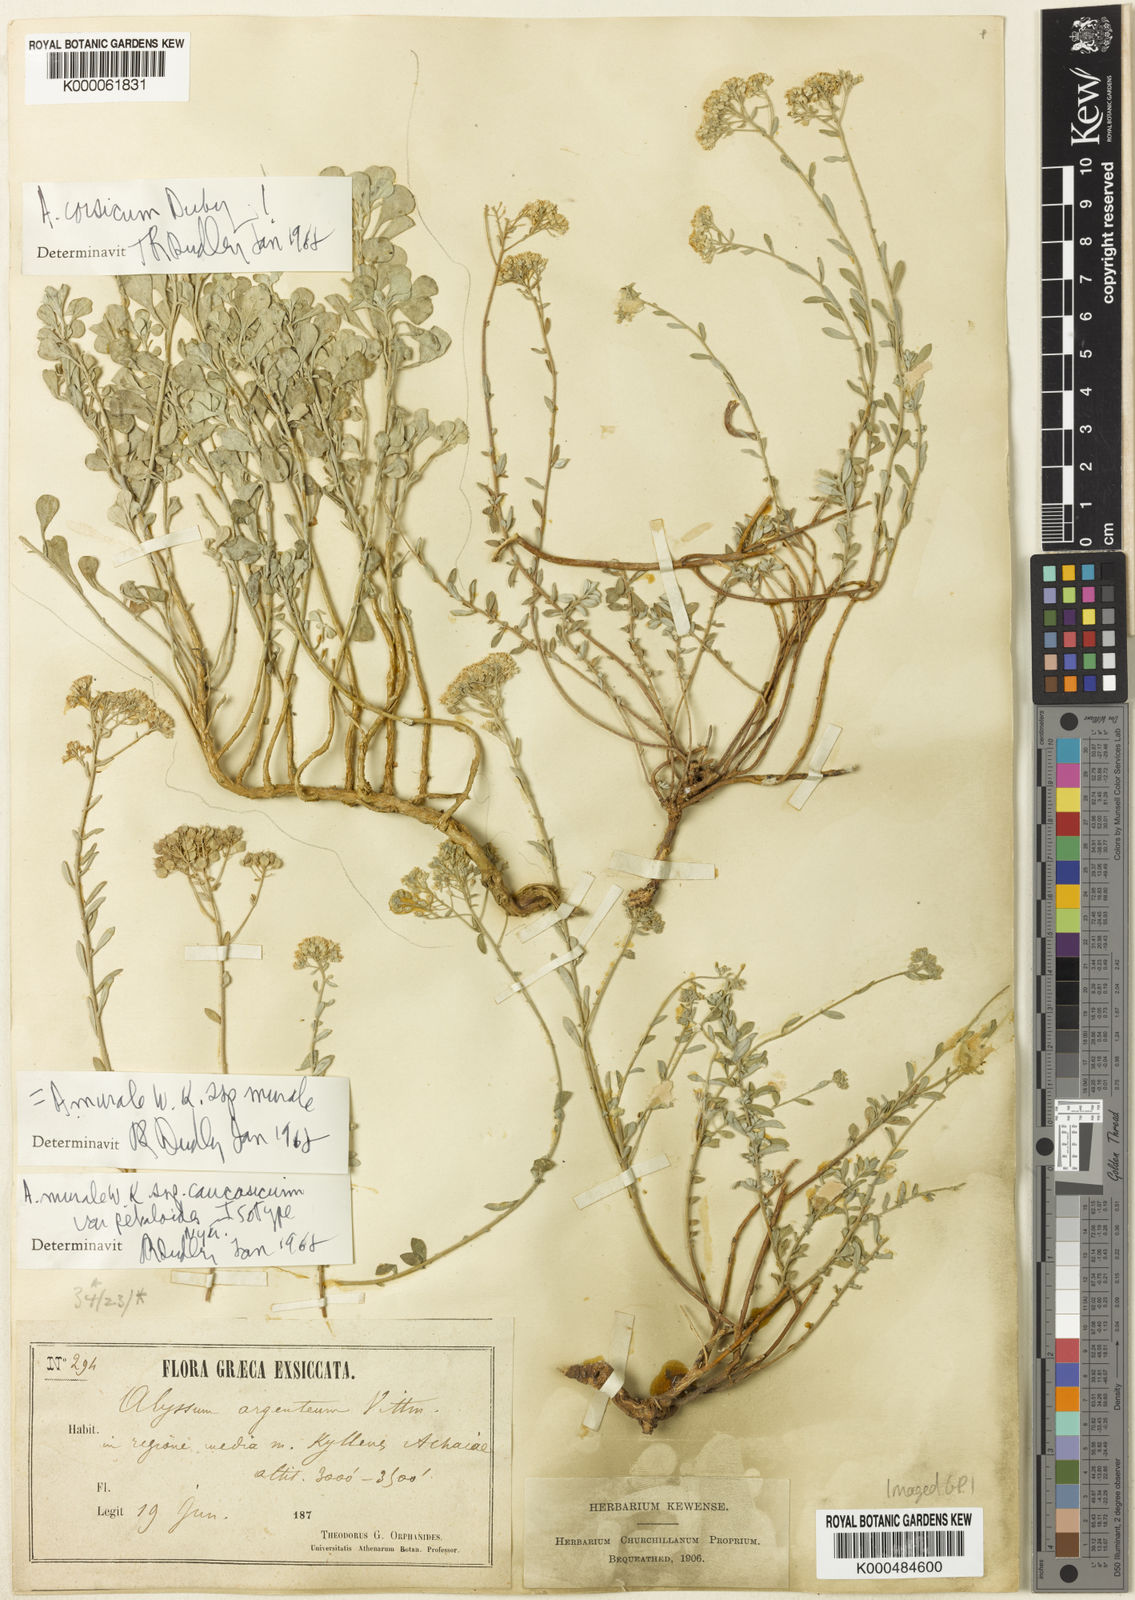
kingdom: Plantae
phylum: Tracheophyta
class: Magnoliopsida
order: Brassicales
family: Brassicaceae
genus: Odontarrhena
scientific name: Odontarrhena corsica
